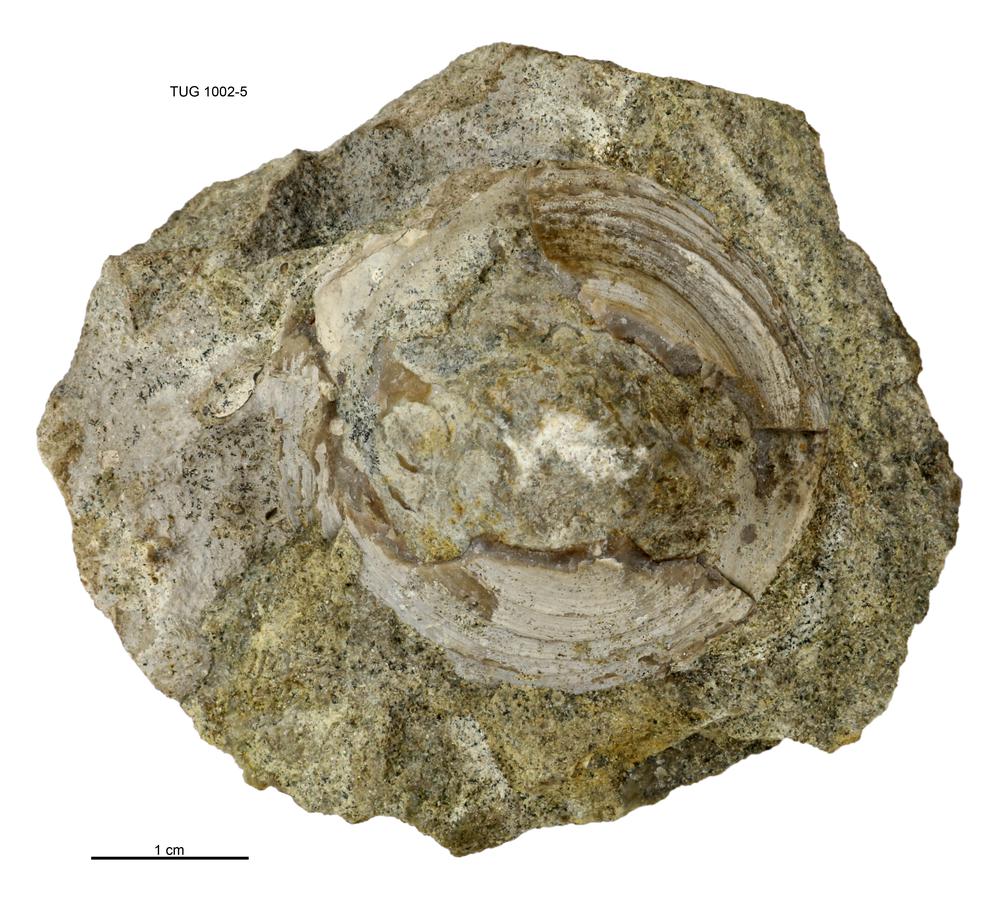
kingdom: Animalia
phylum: Mollusca
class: Monoplacophora
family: Metoptomatidae
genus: Metoptoma
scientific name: Metoptoma
